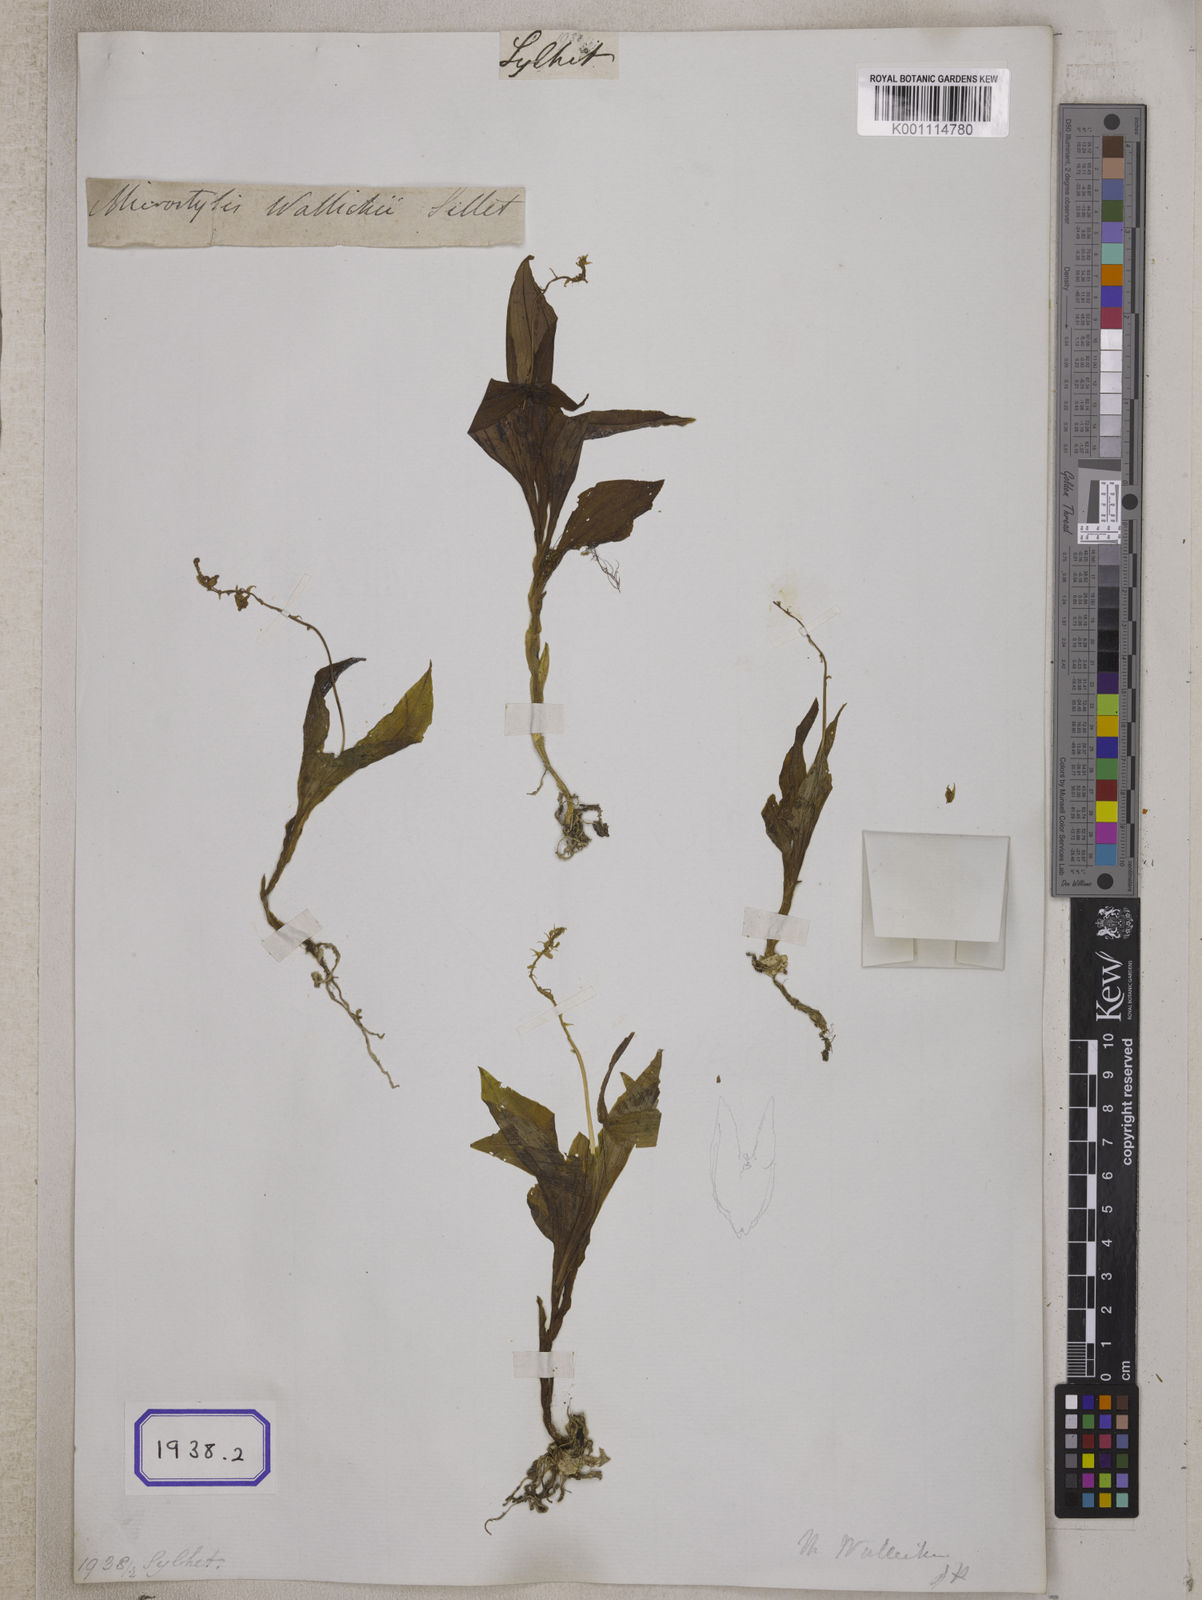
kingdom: Plantae
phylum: Tracheophyta
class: Liliopsida
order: Asparagales
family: Orchidaceae
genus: Crepidium
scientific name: Crepidium acuminatum
